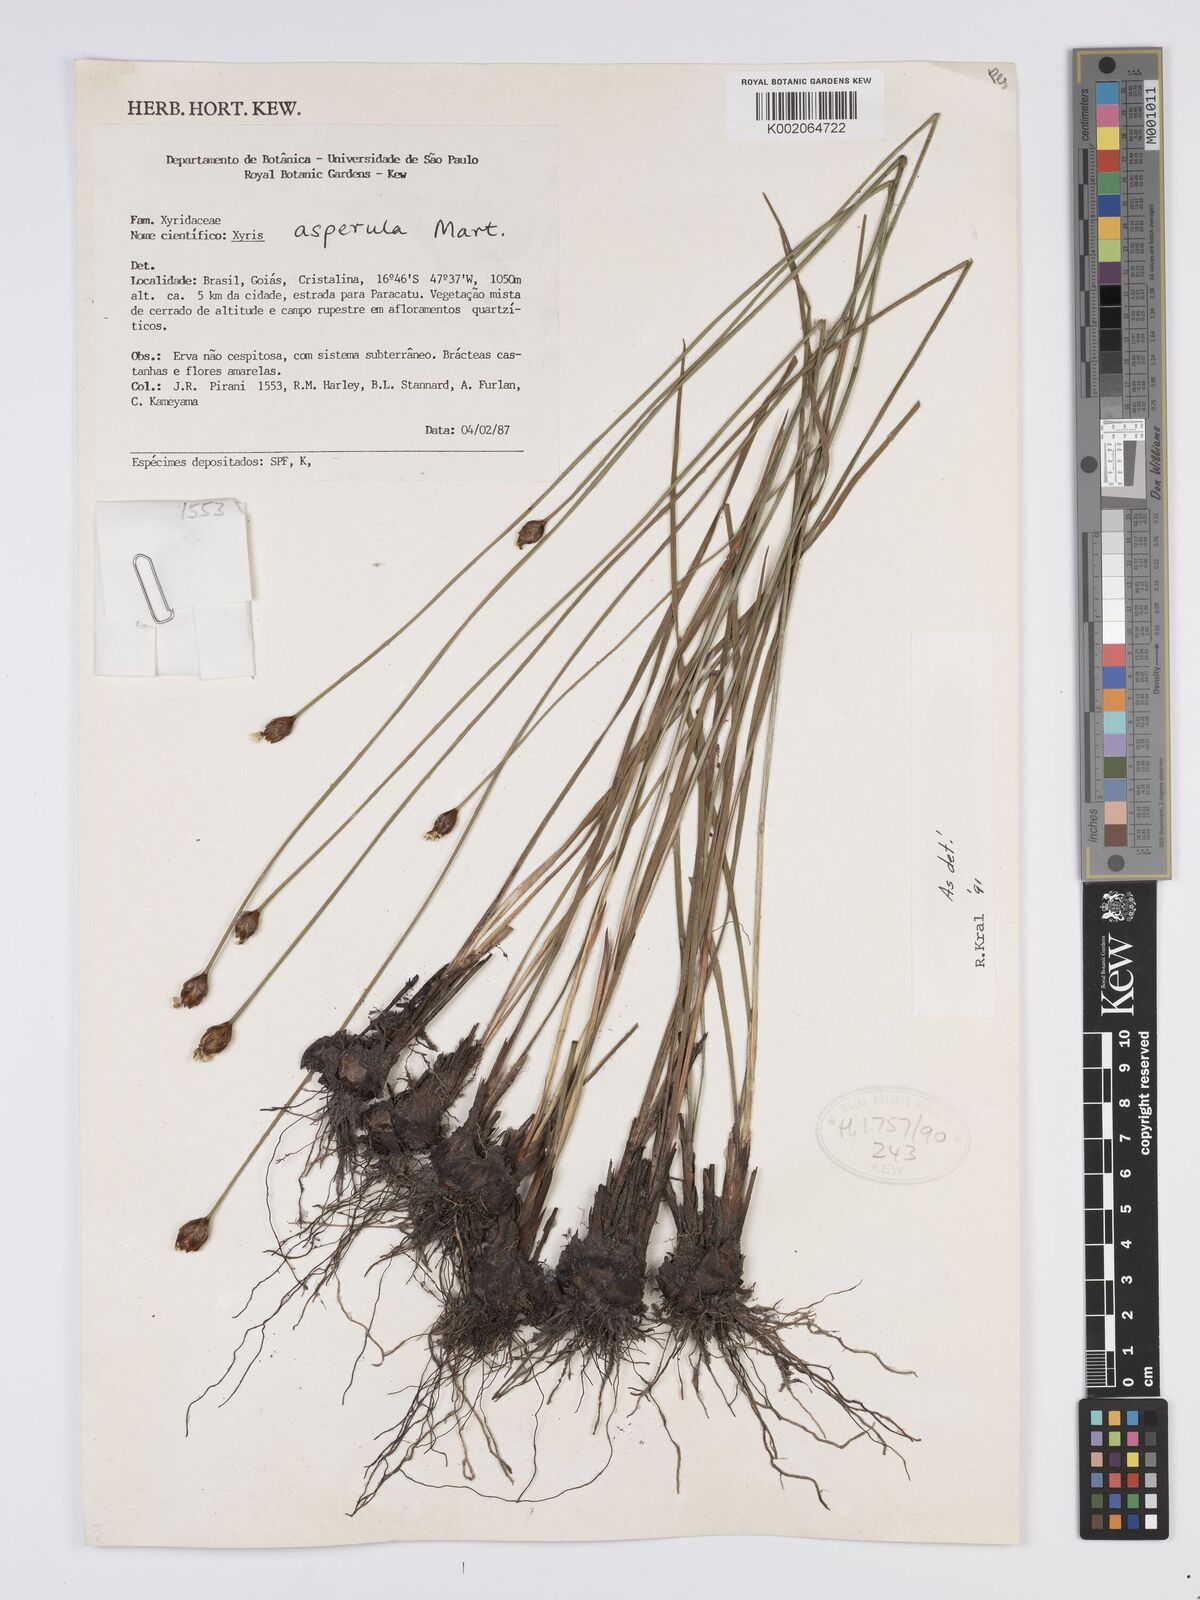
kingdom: Plantae
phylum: Tracheophyta
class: Liliopsida
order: Poales
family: Xyridaceae
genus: Xyris
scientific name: Xyris asperula
